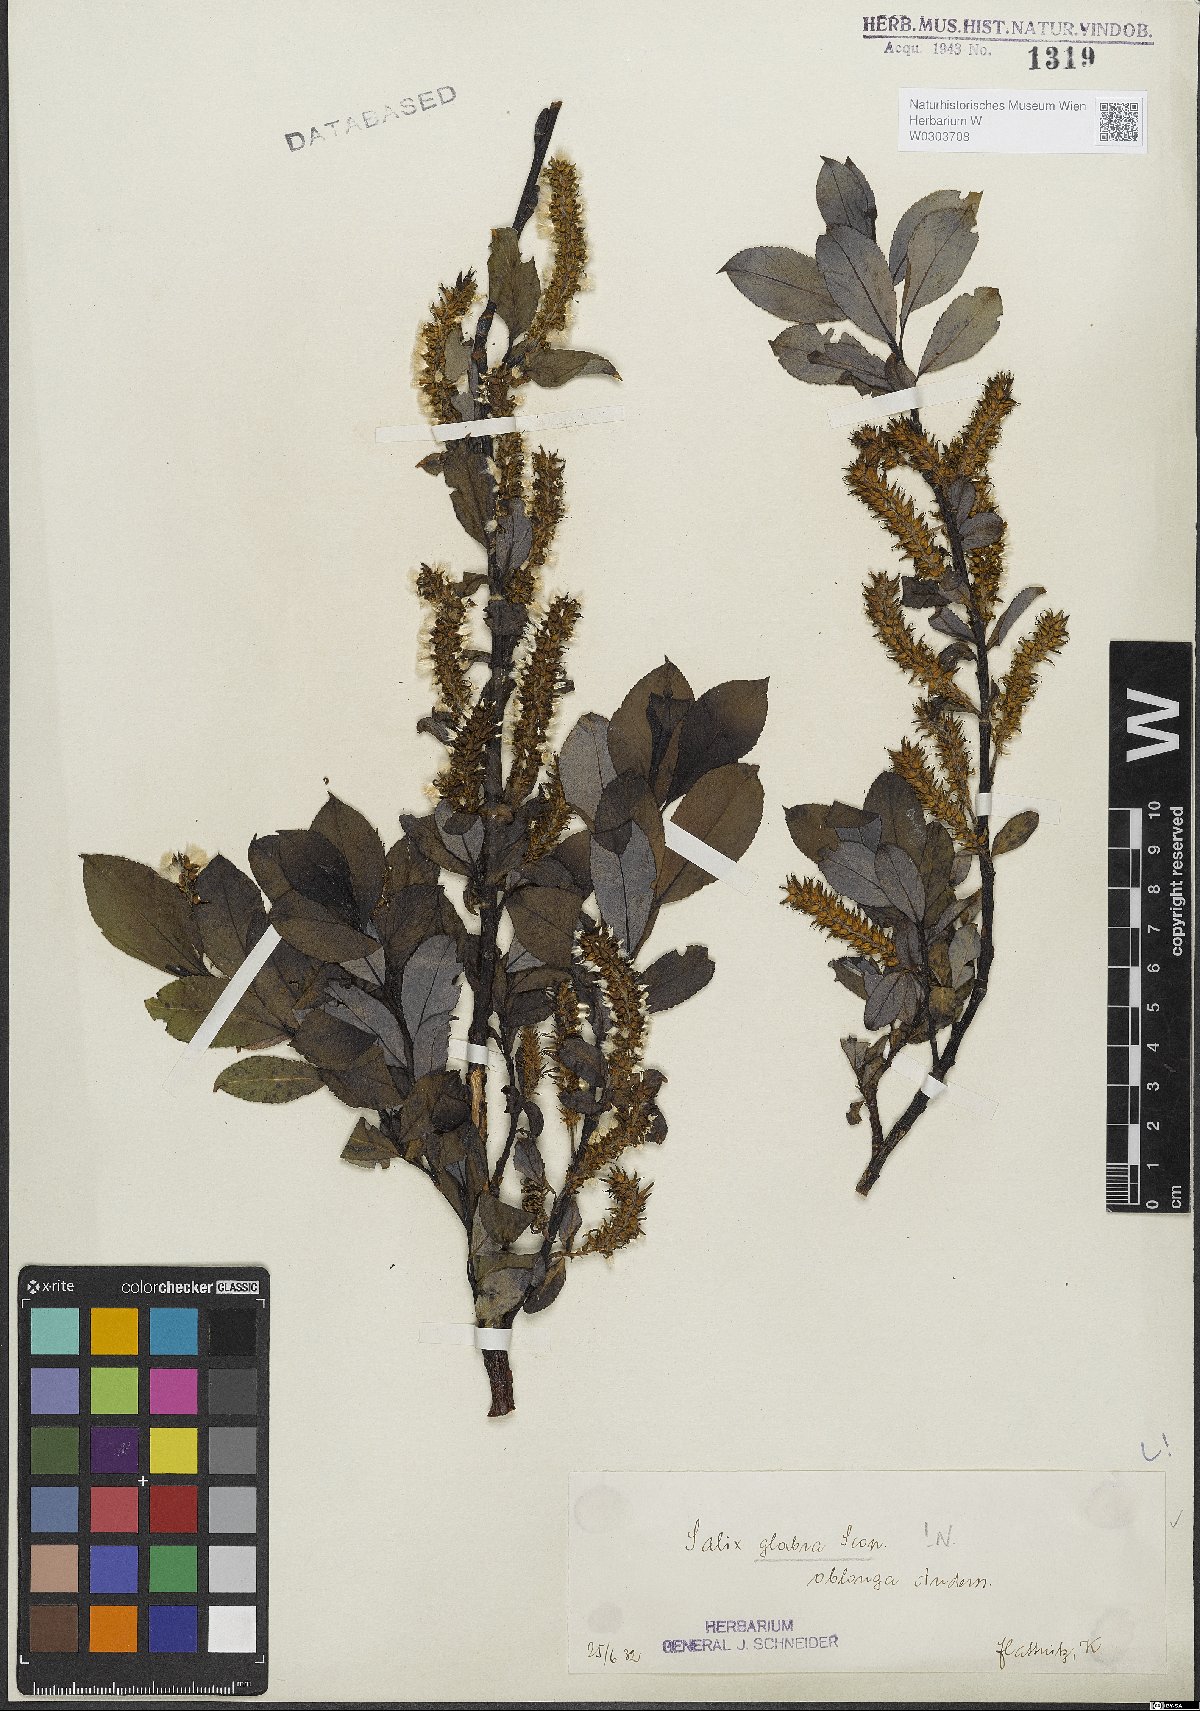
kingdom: Plantae
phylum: Tracheophyta
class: Magnoliopsida
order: Malpighiales
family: Salicaceae
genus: Salix
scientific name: Salix glabra
